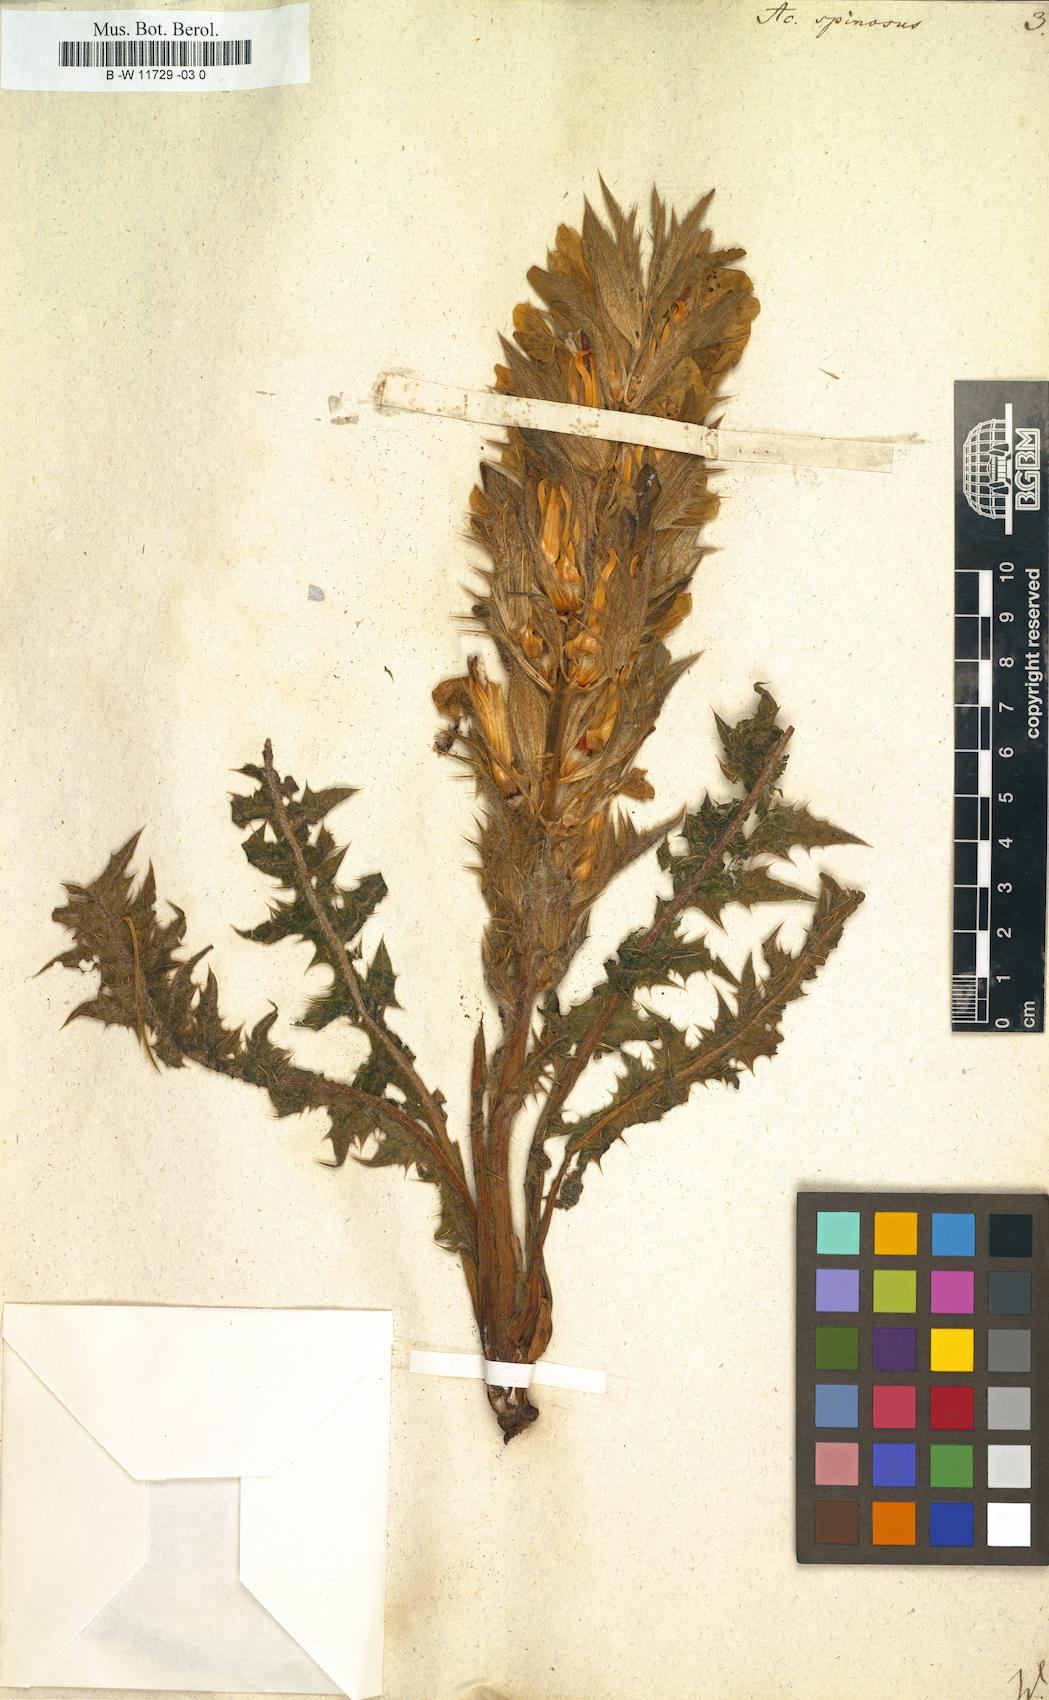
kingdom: Plantae
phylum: Tracheophyta
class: Magnoliopsida
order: Lamiales
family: Acanthaceae
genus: Acanthus
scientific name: Acanthus spinosus
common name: Spiny bear's-breech
